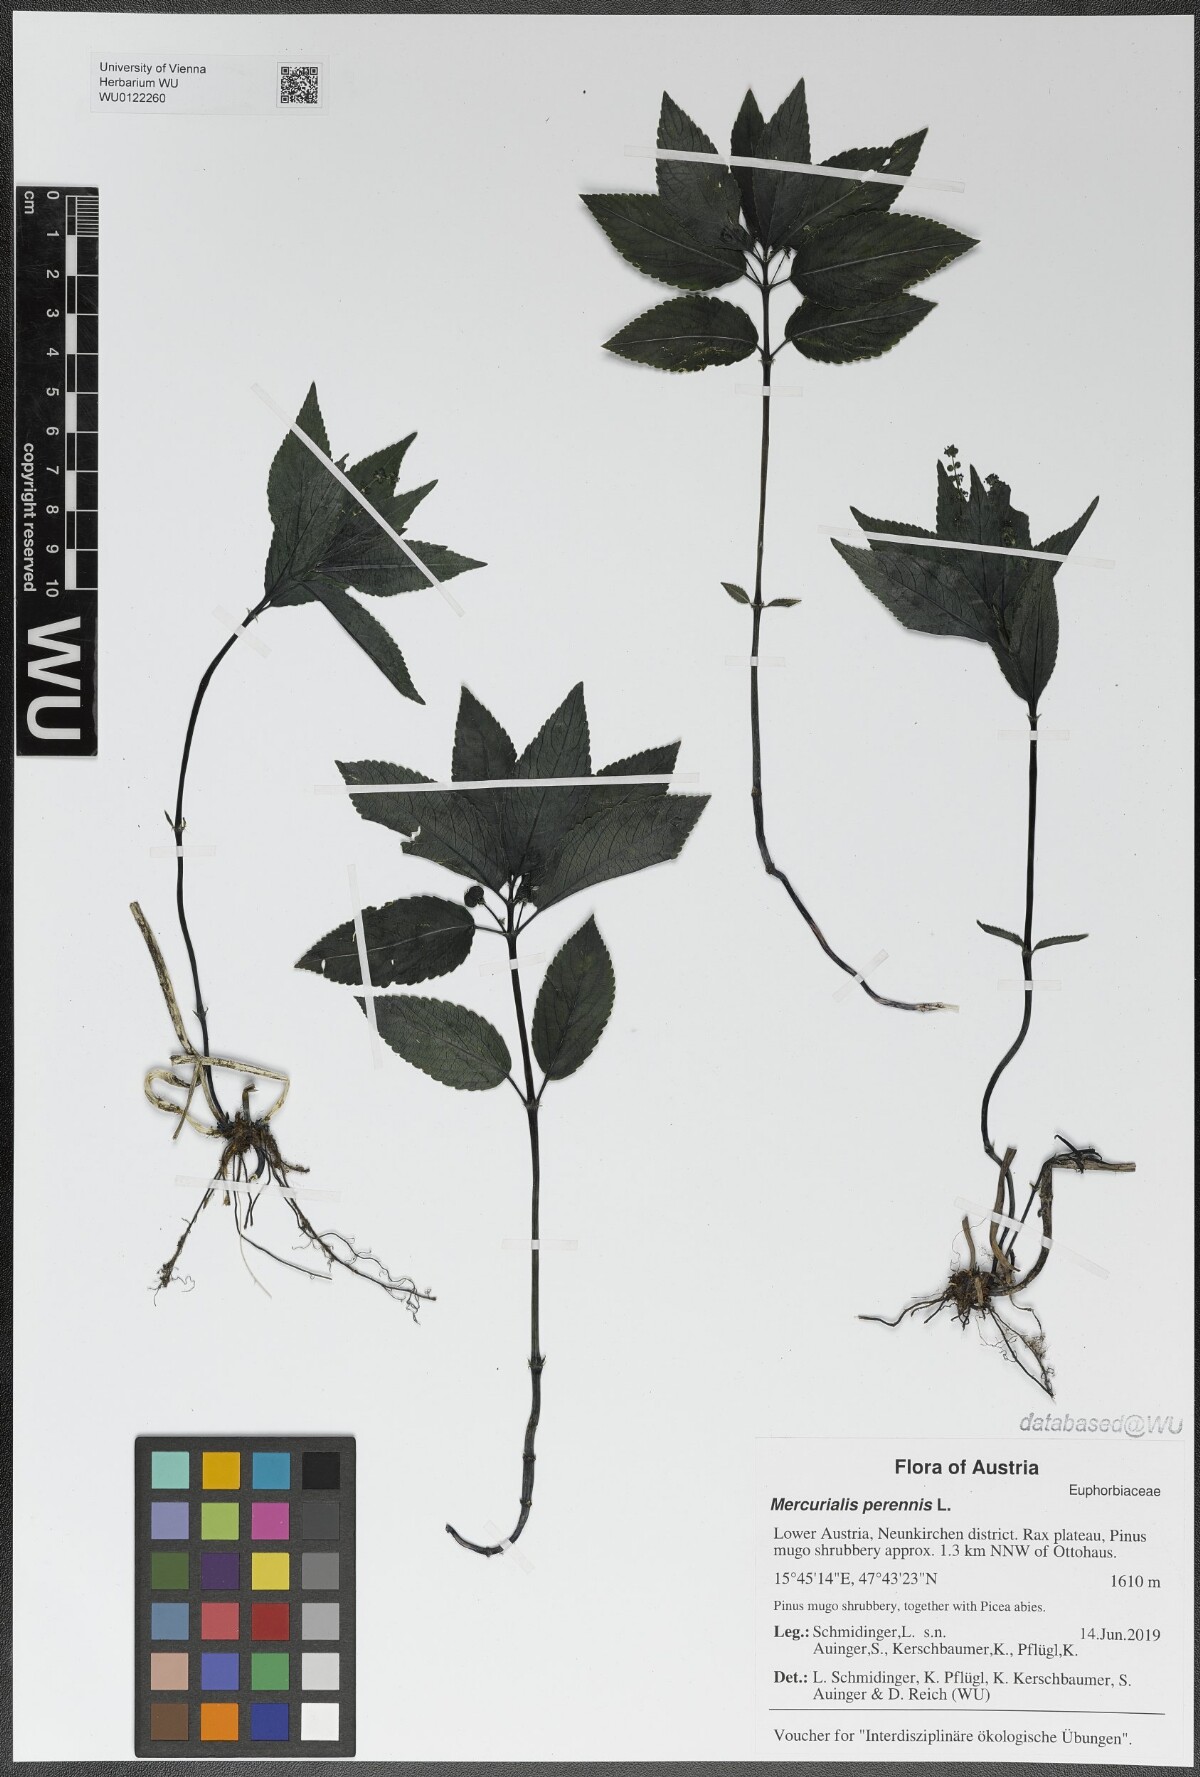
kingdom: Plantae
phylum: Tracheophyta
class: Magnoliopsida
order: Malpighiales
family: Euphorbiaceae
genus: Mercurialis
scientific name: Mercurialis perennis
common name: Dog mercury
